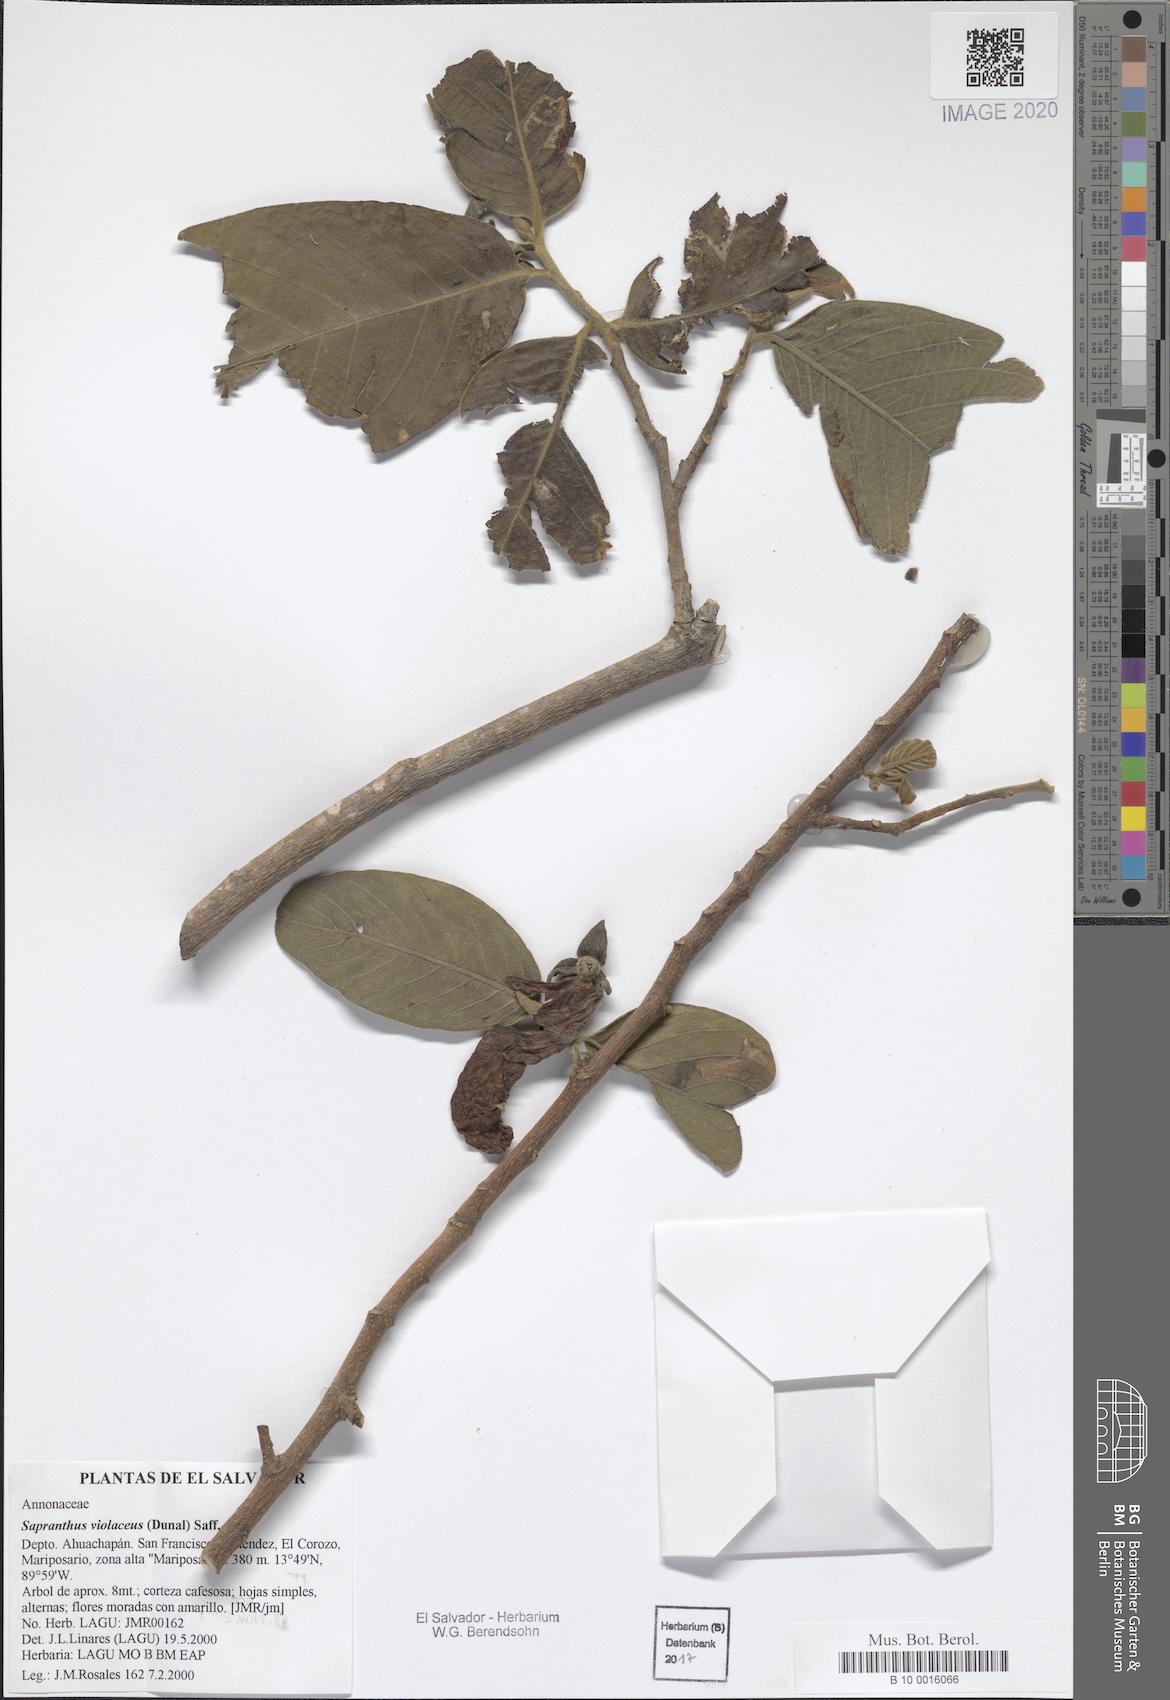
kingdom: Plantae
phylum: Tracheophyta
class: Magnoliopsida
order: Magnoliales
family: Annonaceae
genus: Sapranthus
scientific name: Sapranthus violaceus
